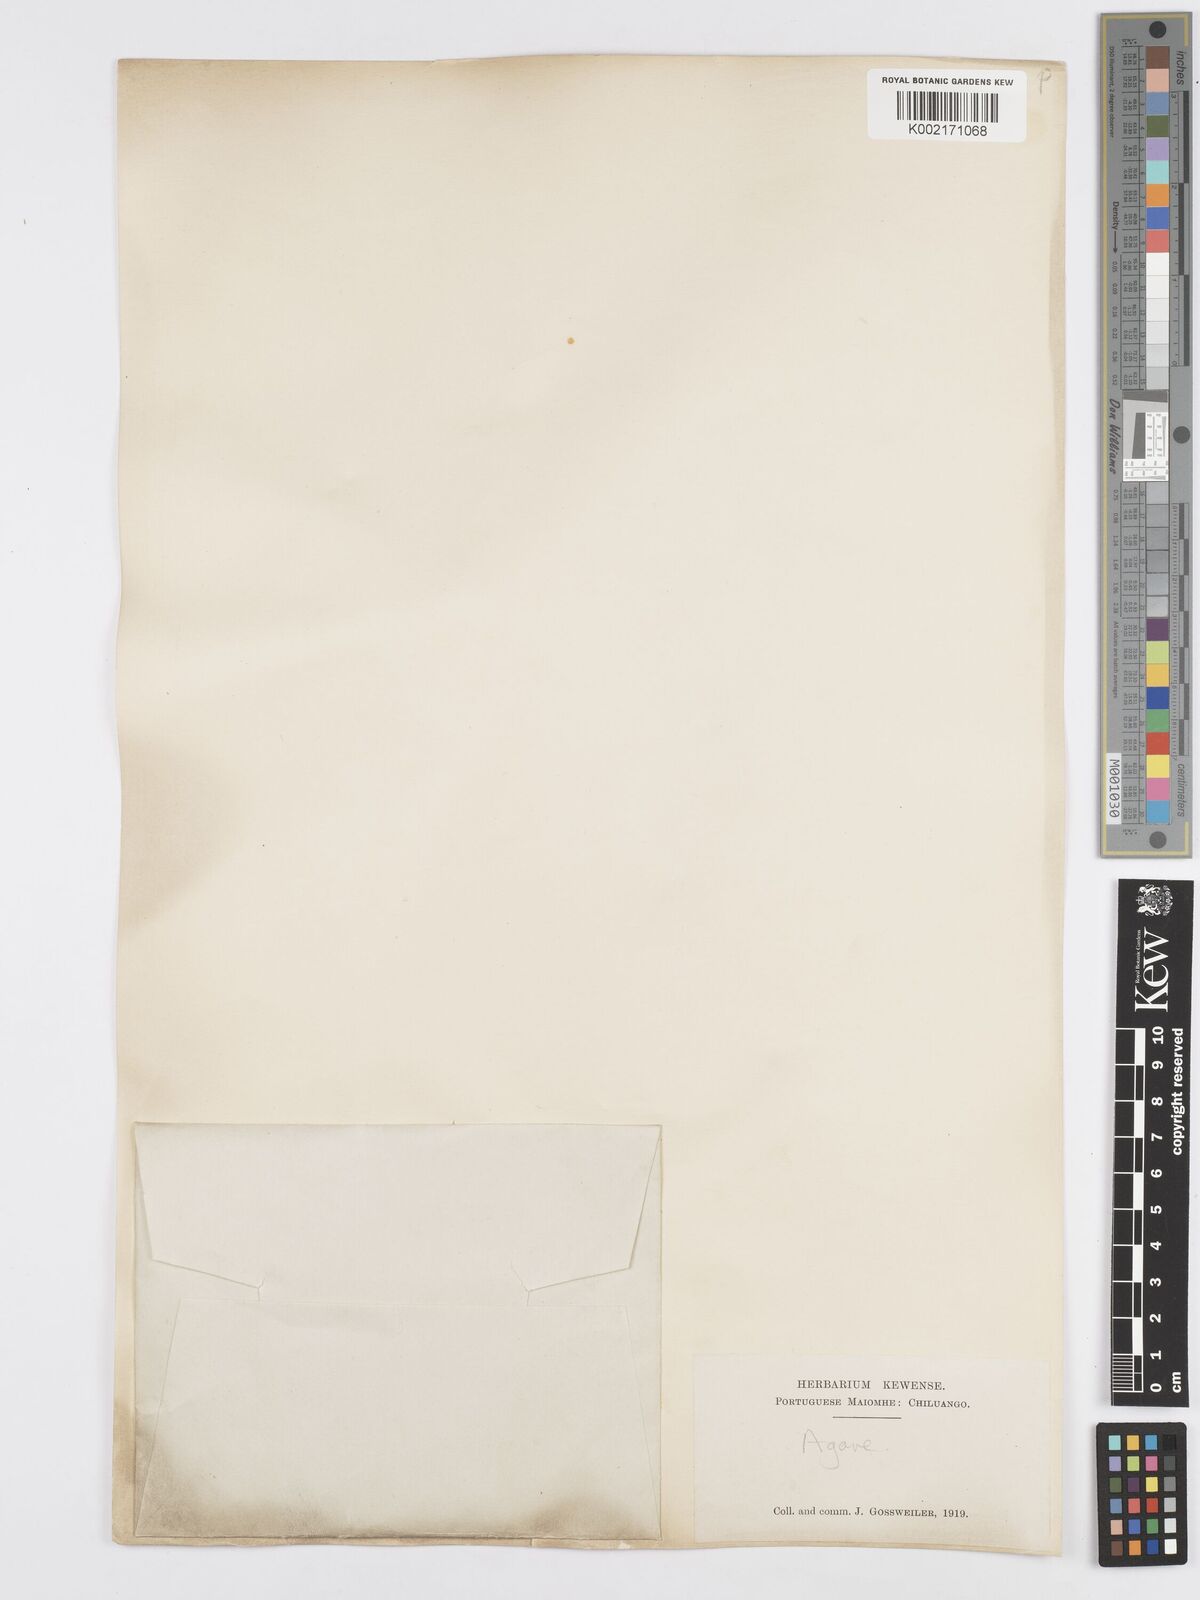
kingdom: Plantae
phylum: Tracheophyta
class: Liliopsida
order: Asparagales
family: Asparagaceae
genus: Agave
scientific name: Agave
